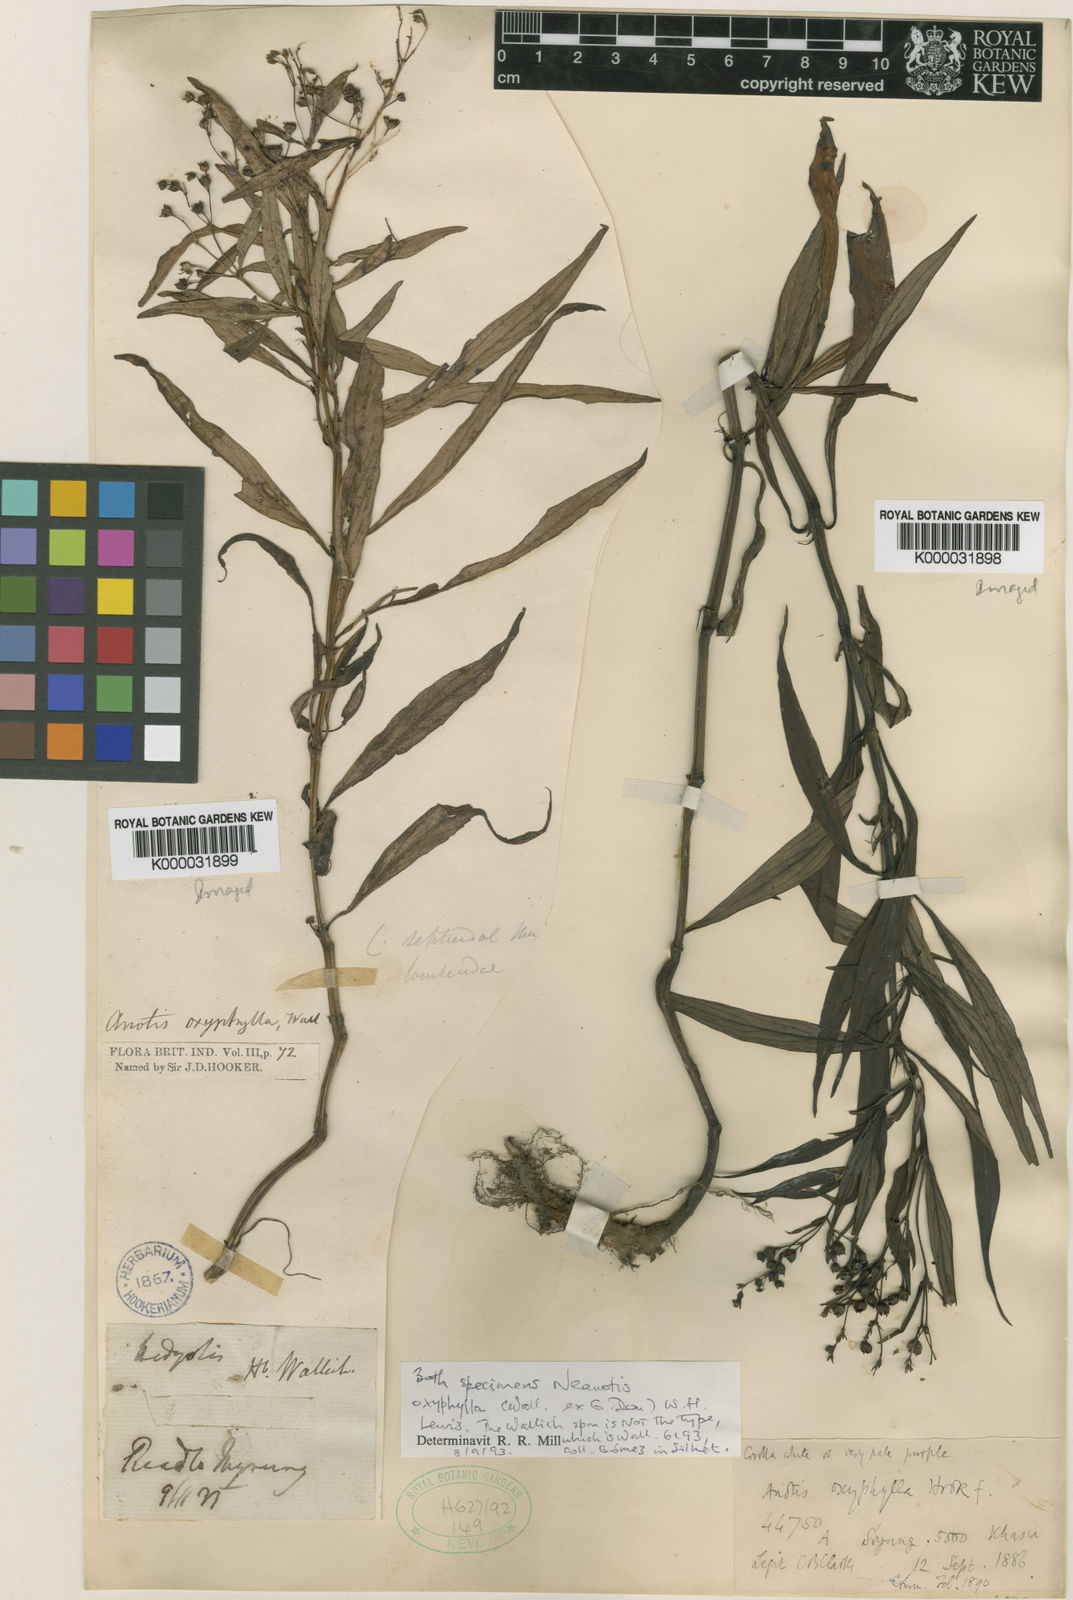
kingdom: Plantae
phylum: Tracheophyta
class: Magnoliopsida
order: Gentianales
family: Rubiaceae
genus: Neanotis
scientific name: Neanotis decipiens
